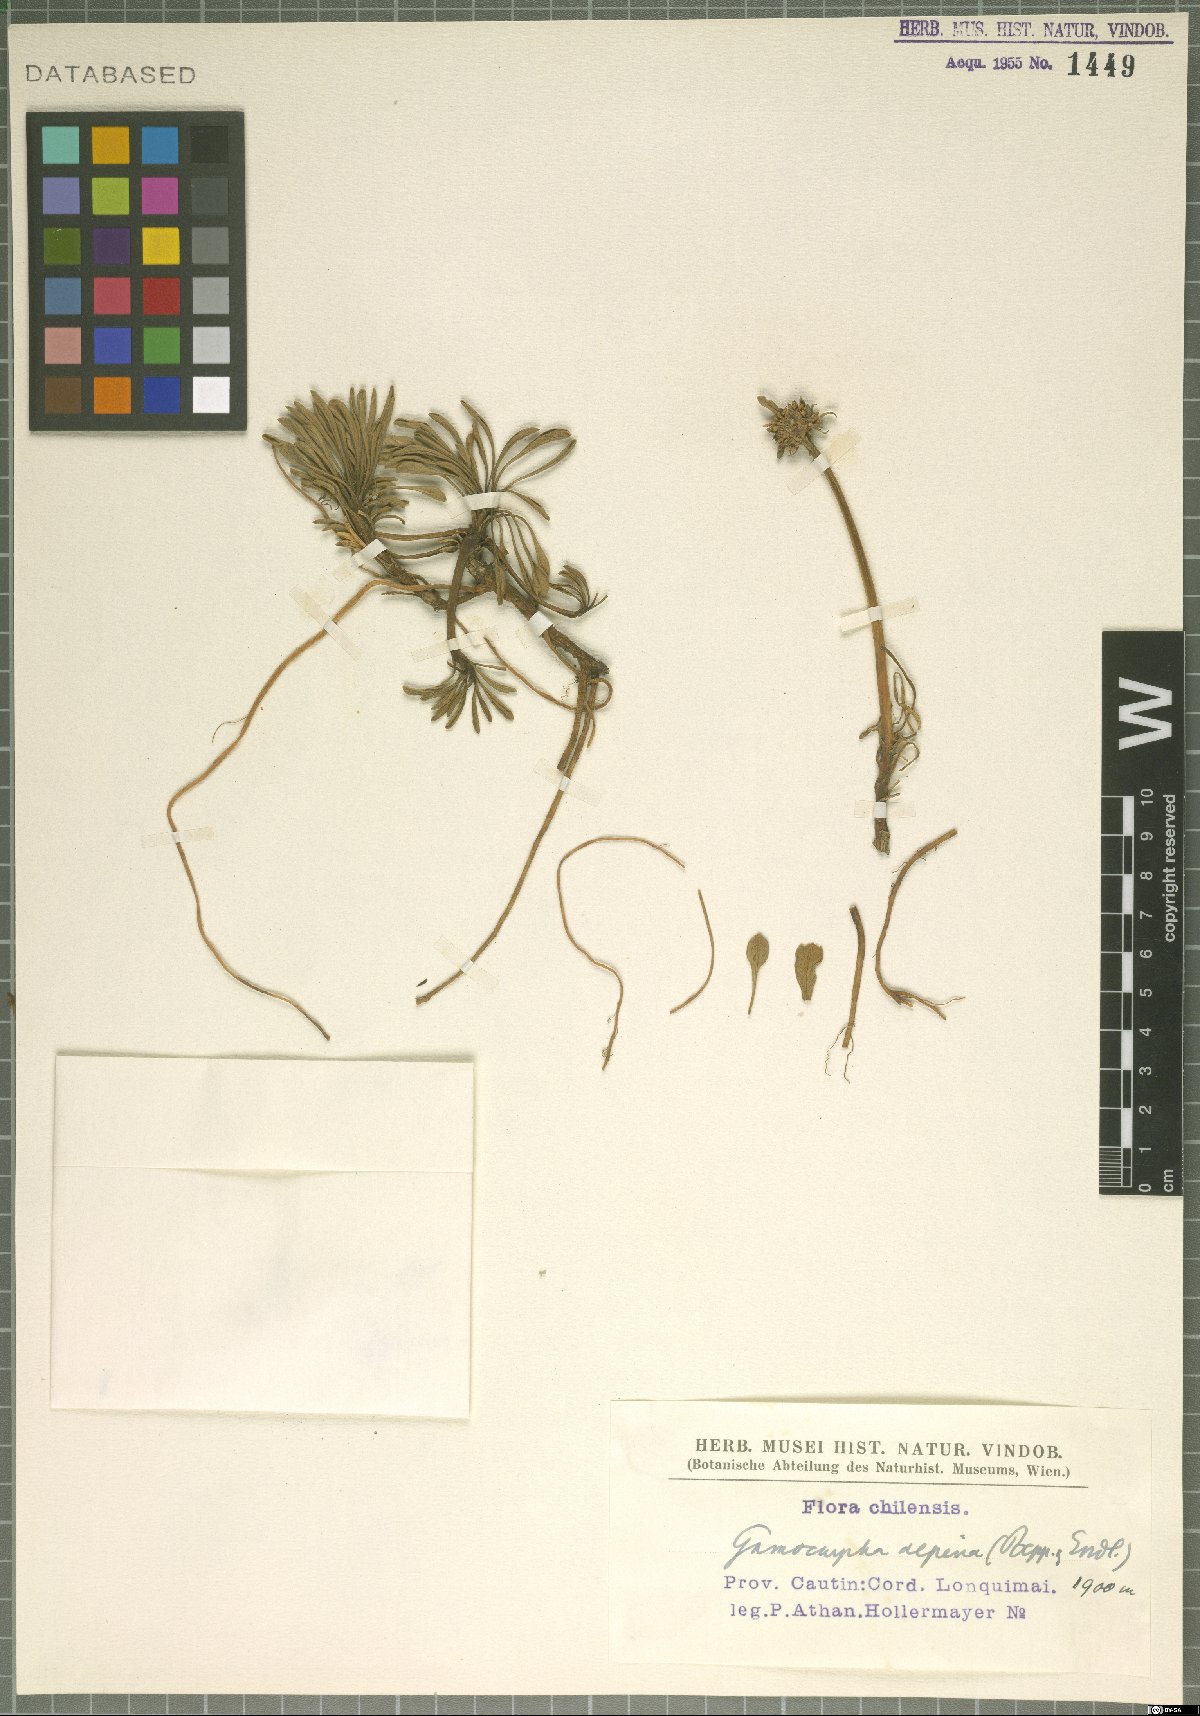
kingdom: Plantae
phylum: Tracheophyta
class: Magnoliopsida
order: Asterales
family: Calyceraceae
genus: Gamocarpha
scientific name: Gamocarpha alpina
